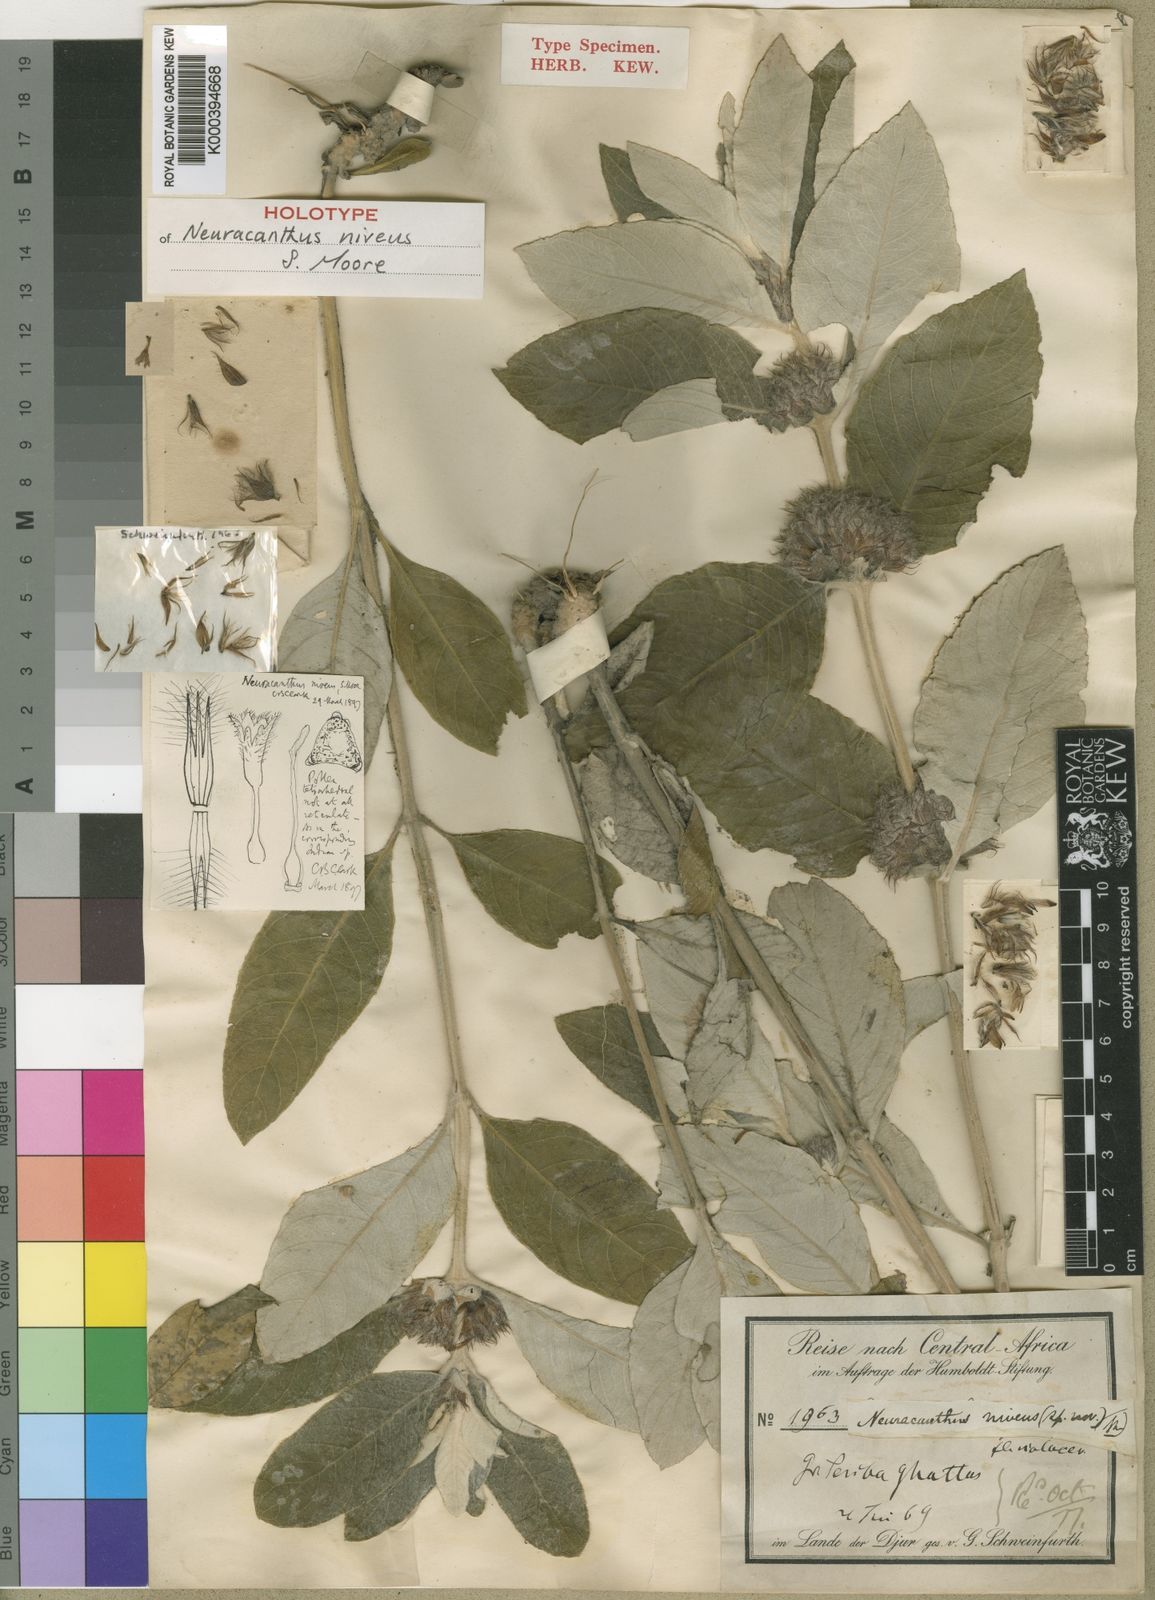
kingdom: Plantae
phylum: Tracheophyta
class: Magnoliopsida
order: Lamiales
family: Acanthaceae
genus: Neuracanthus
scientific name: Neuracanthus niveus
